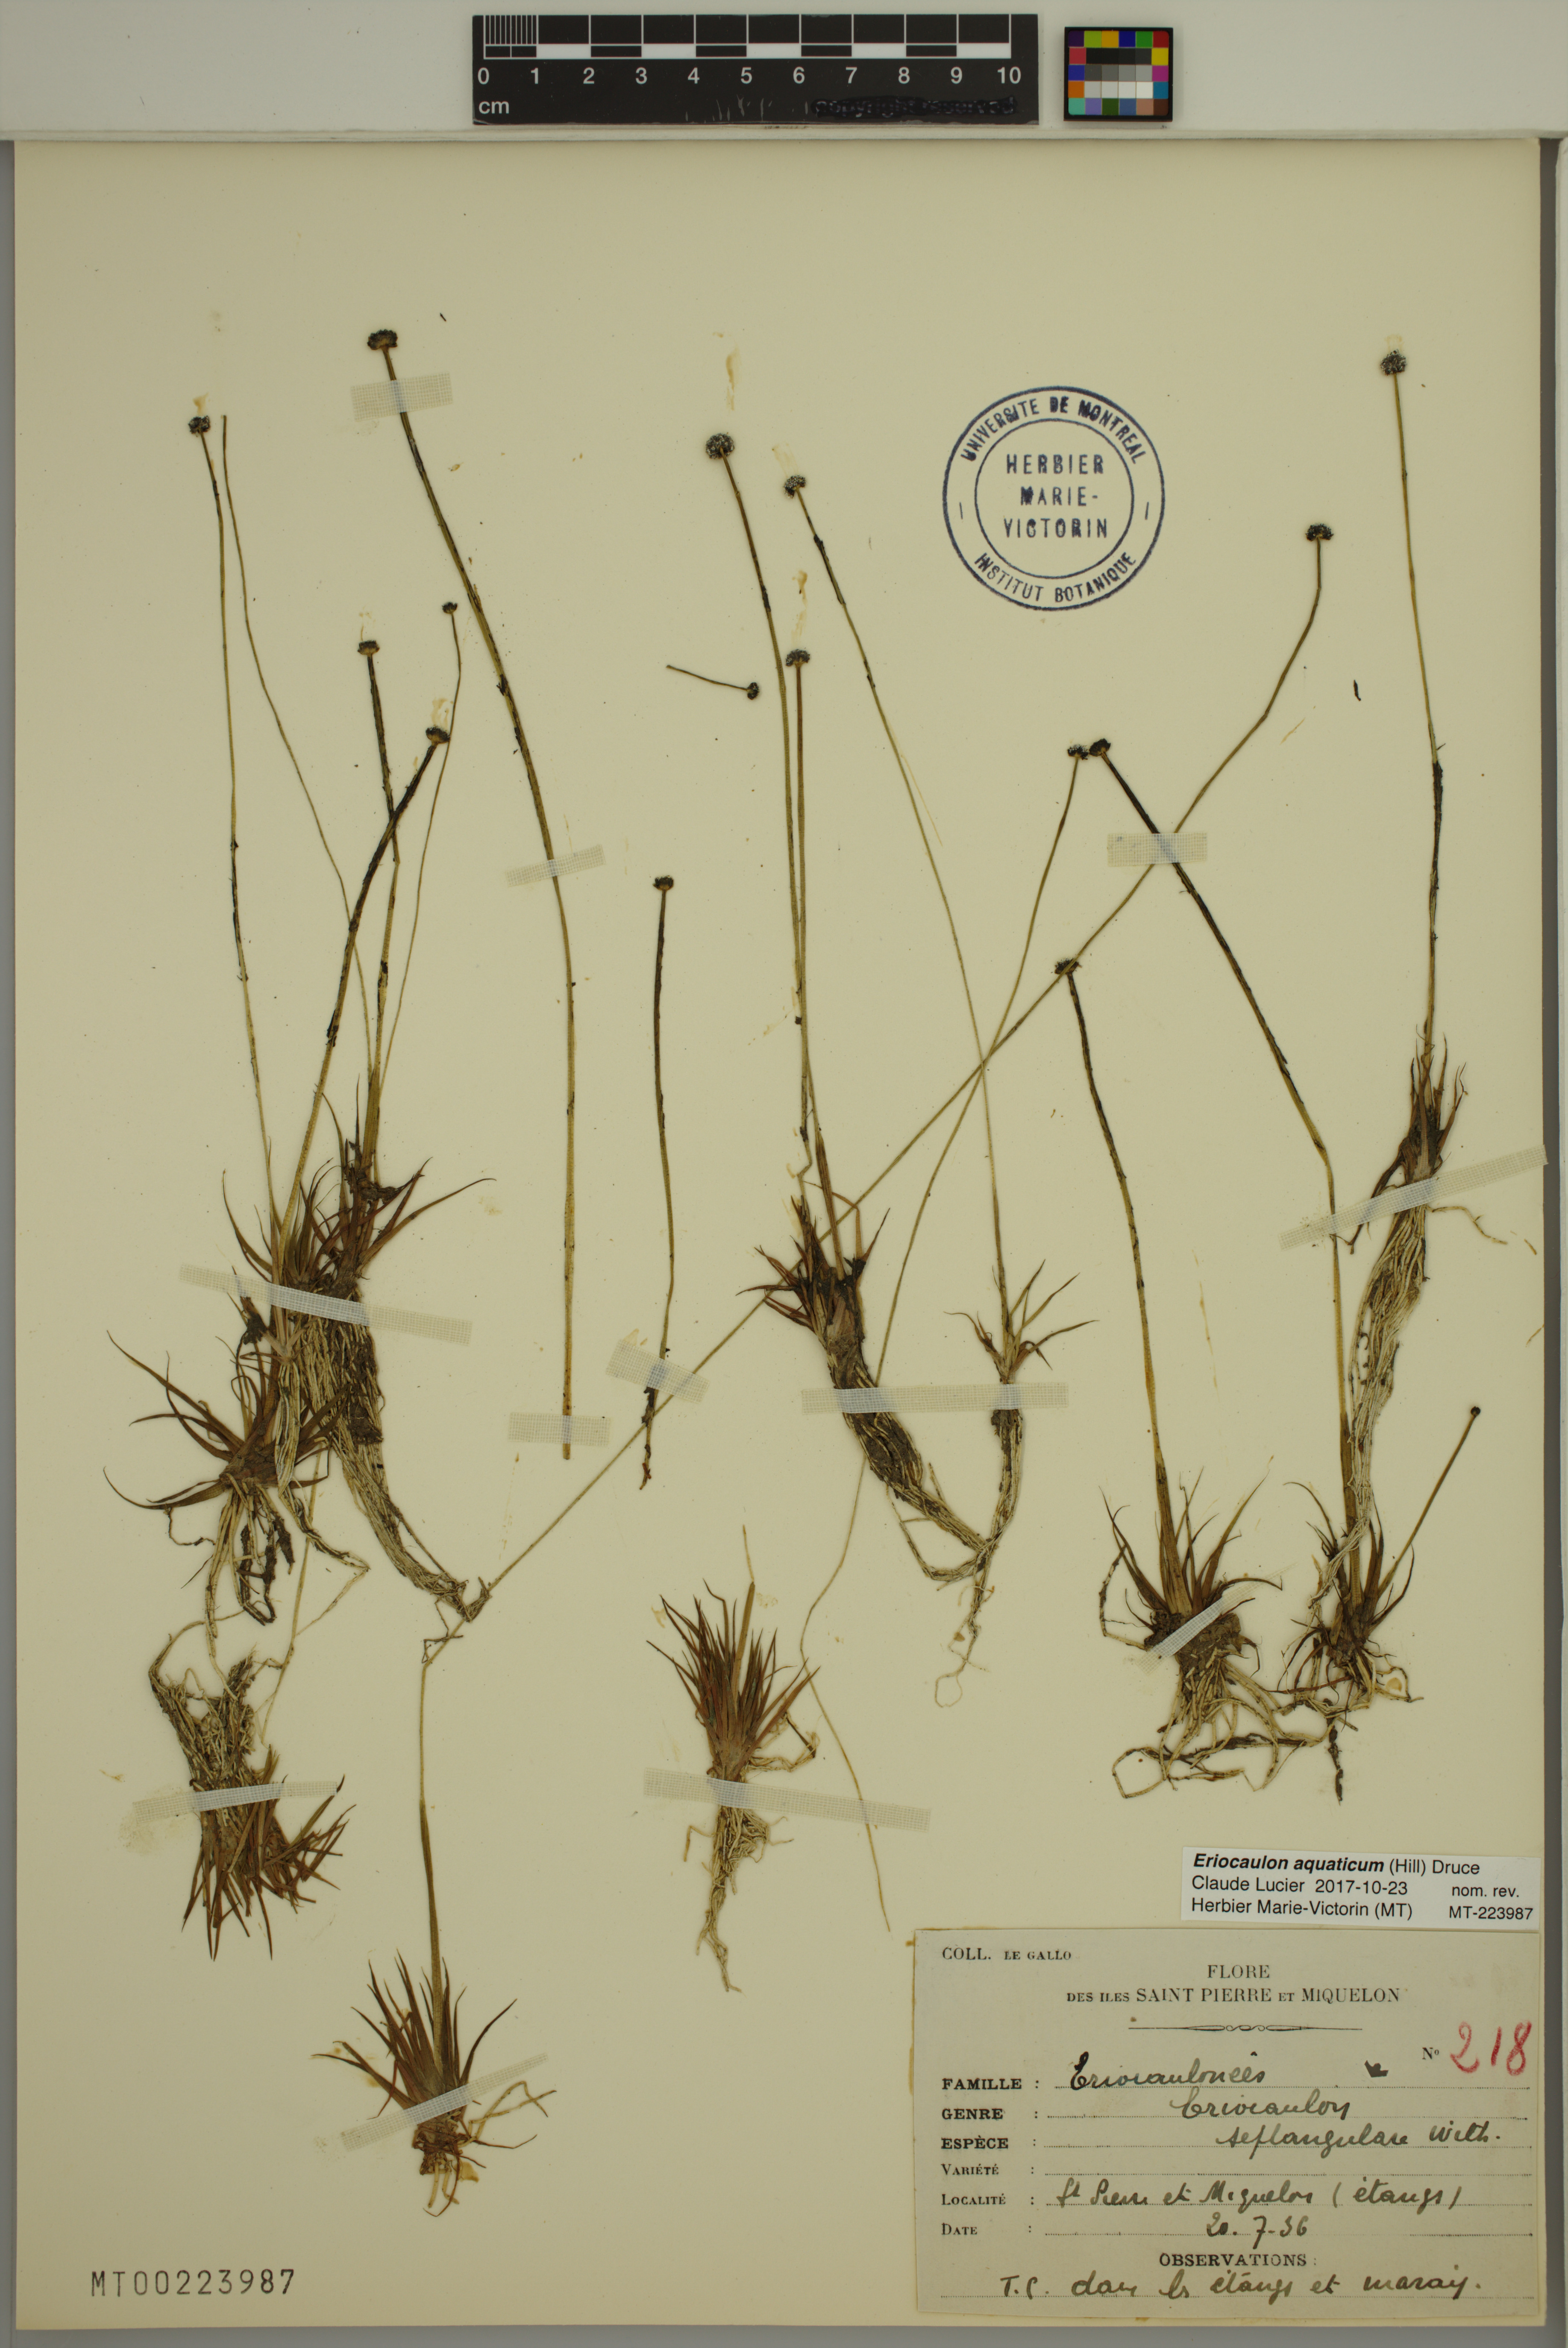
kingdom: Plantae
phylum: Tracheophyta
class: Liliopsida
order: Poales
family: Eriocaulaceae
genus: Eriocaulon
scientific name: Eriocaulon aquaticum
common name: Pipewort
